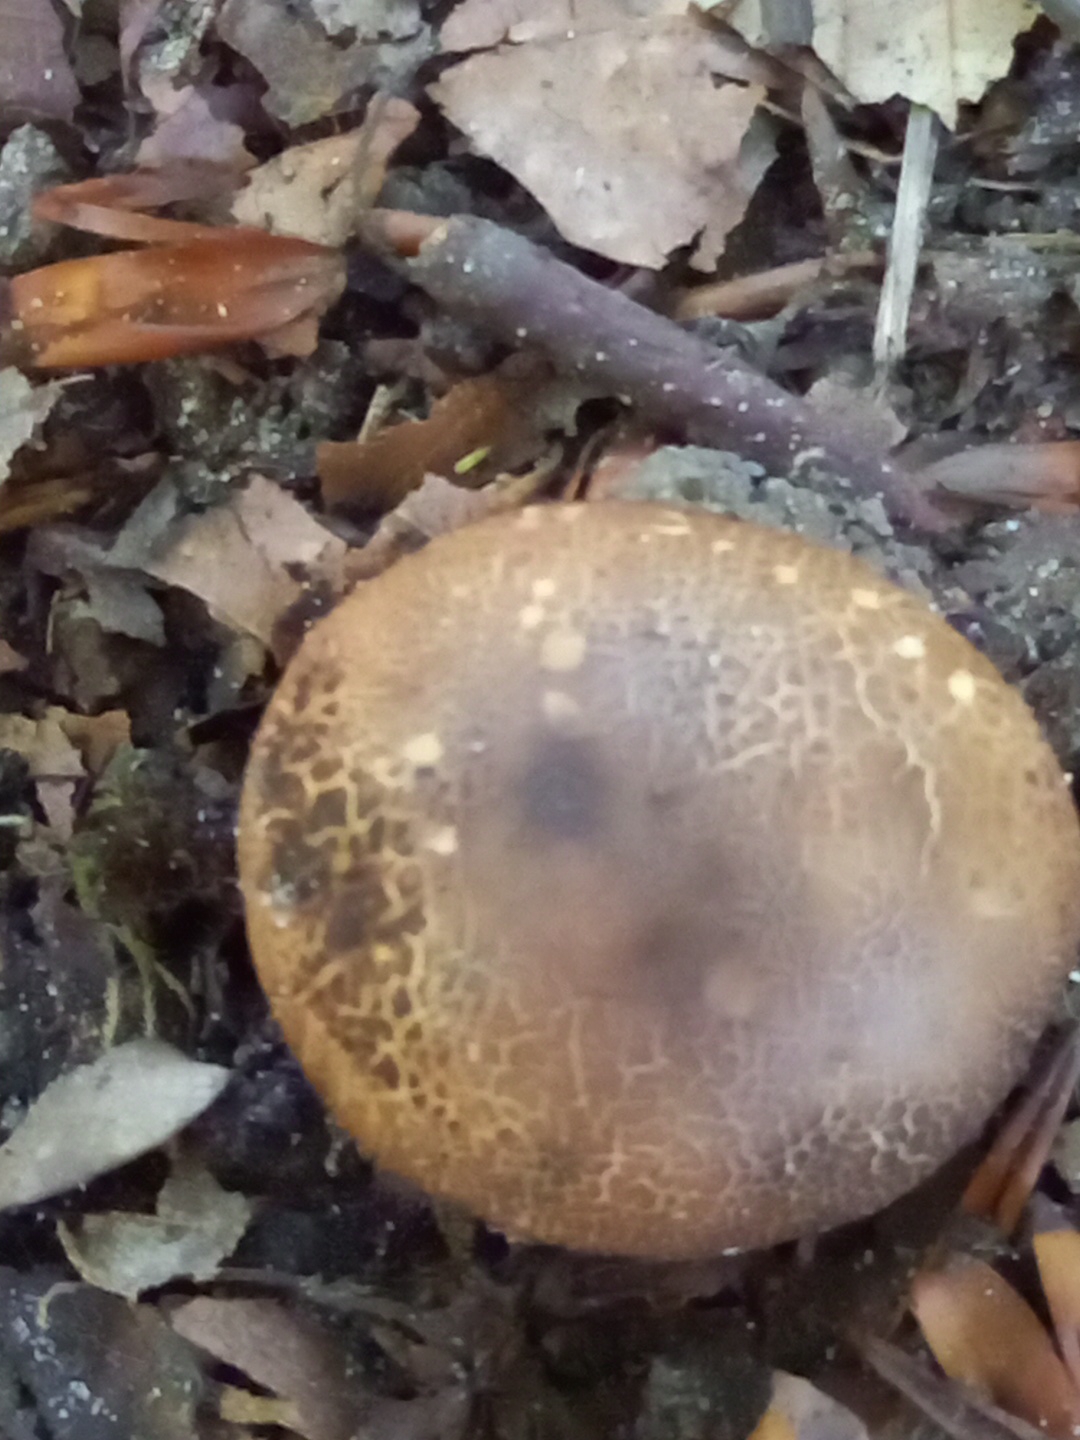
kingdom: Fungi
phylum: Basidiomycota
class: Agaricomycetes
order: Boletales
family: Sclerodermataceae
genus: Scleroderma
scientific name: Scleroderma
